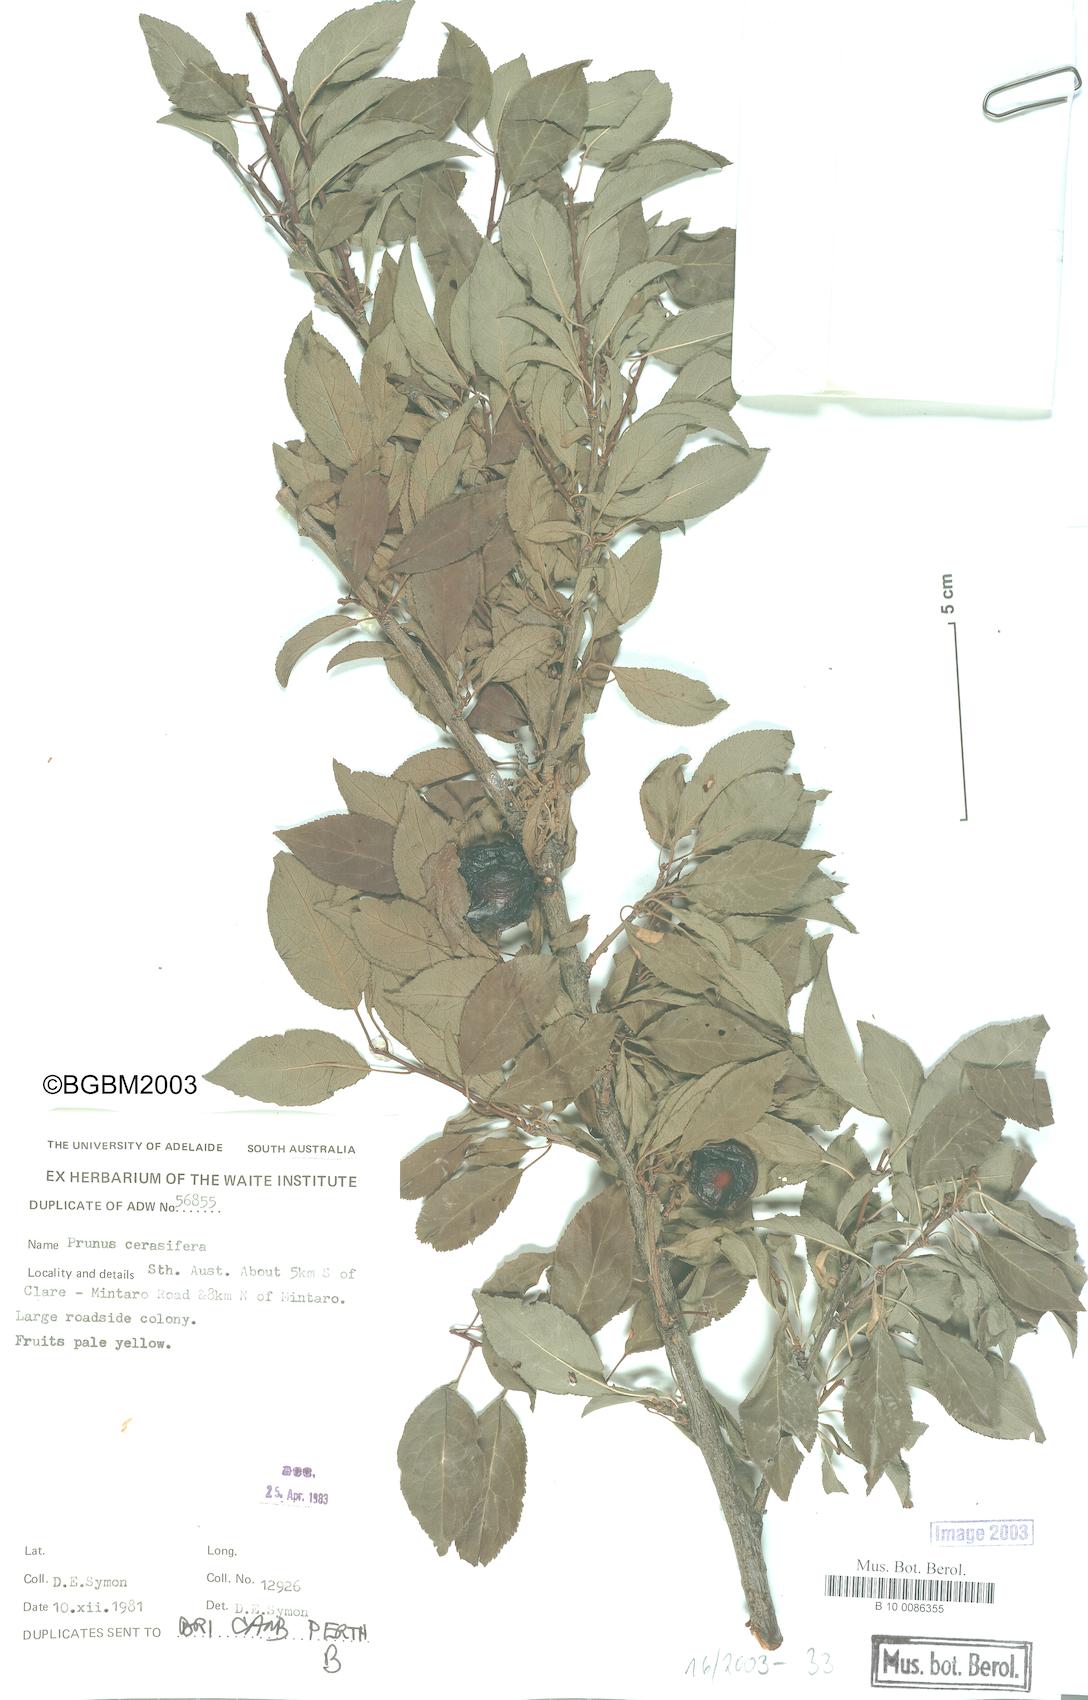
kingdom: Plantae
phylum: Tracheophyta
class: Magnoliopsida
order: Rosales
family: Rosaceae
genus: Prunus
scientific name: Prunus cerasifera
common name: Cherry plum
